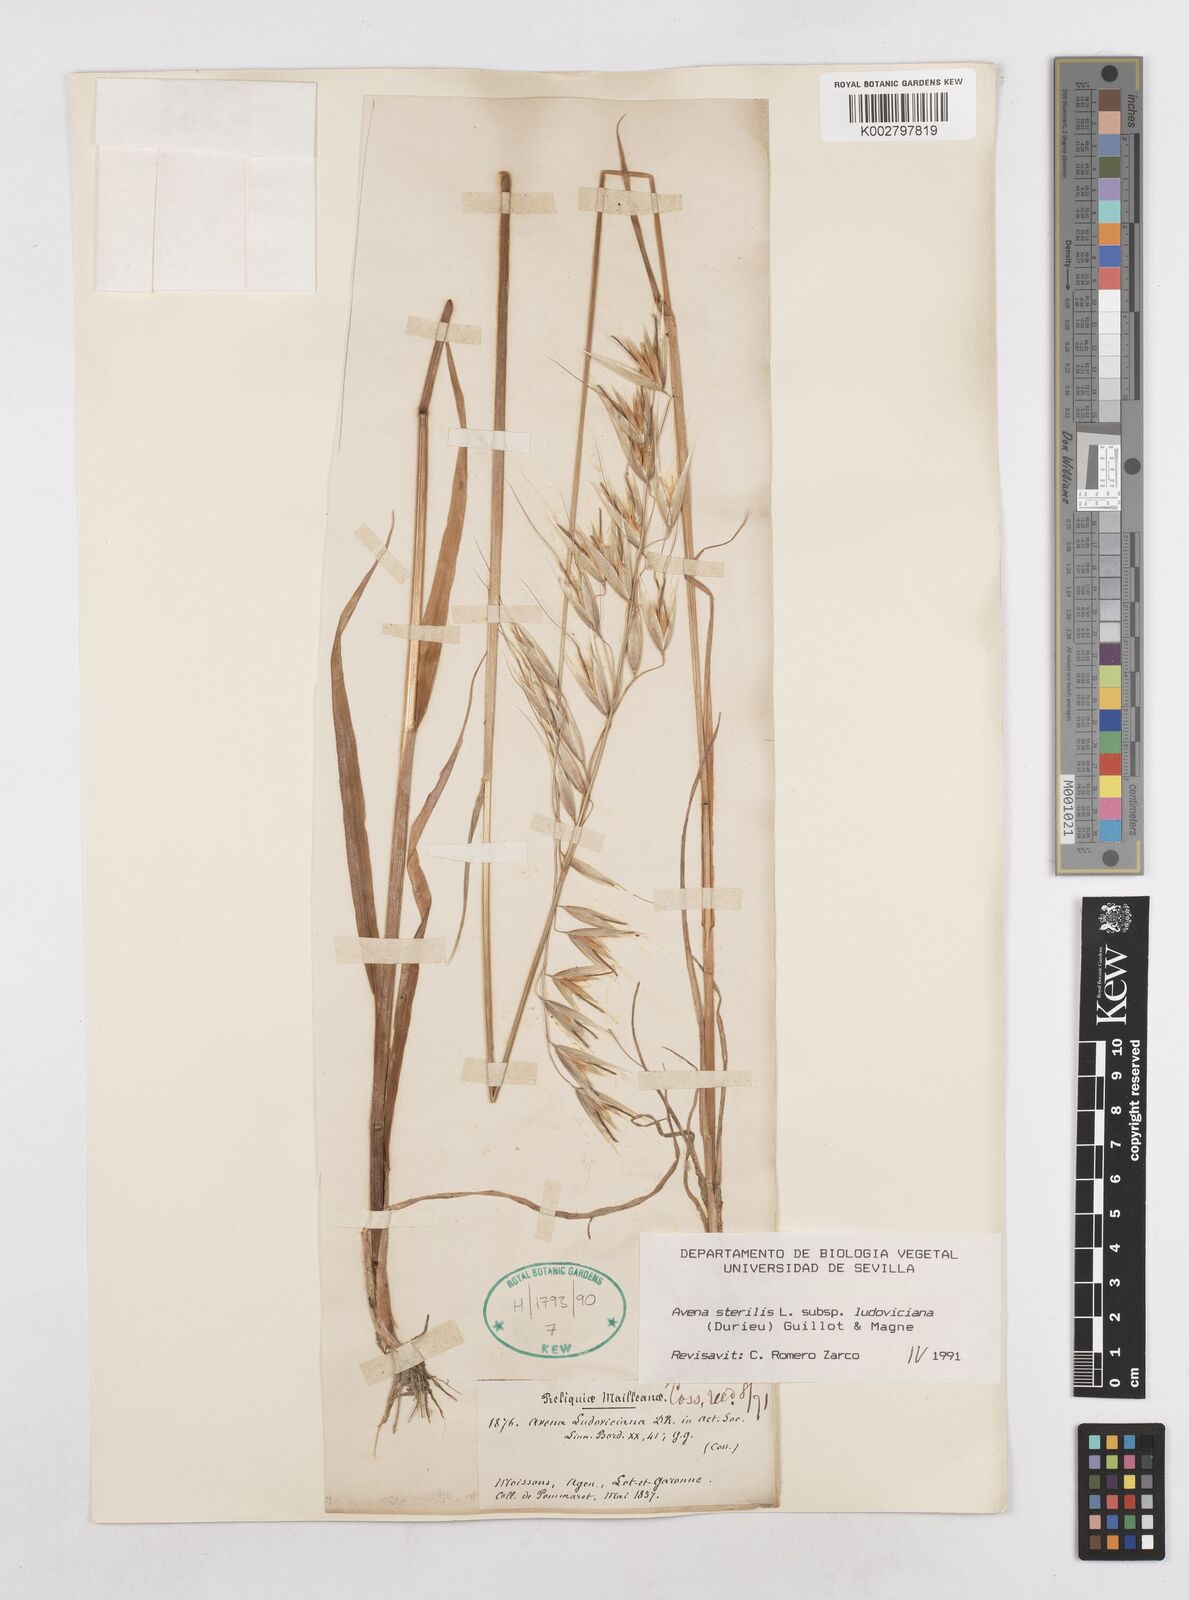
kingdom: Plantae
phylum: Tracheophyta
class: Liliopsida
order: Poales
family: Poaceae
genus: Avena
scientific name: Avena sterilis
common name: Animated oat
